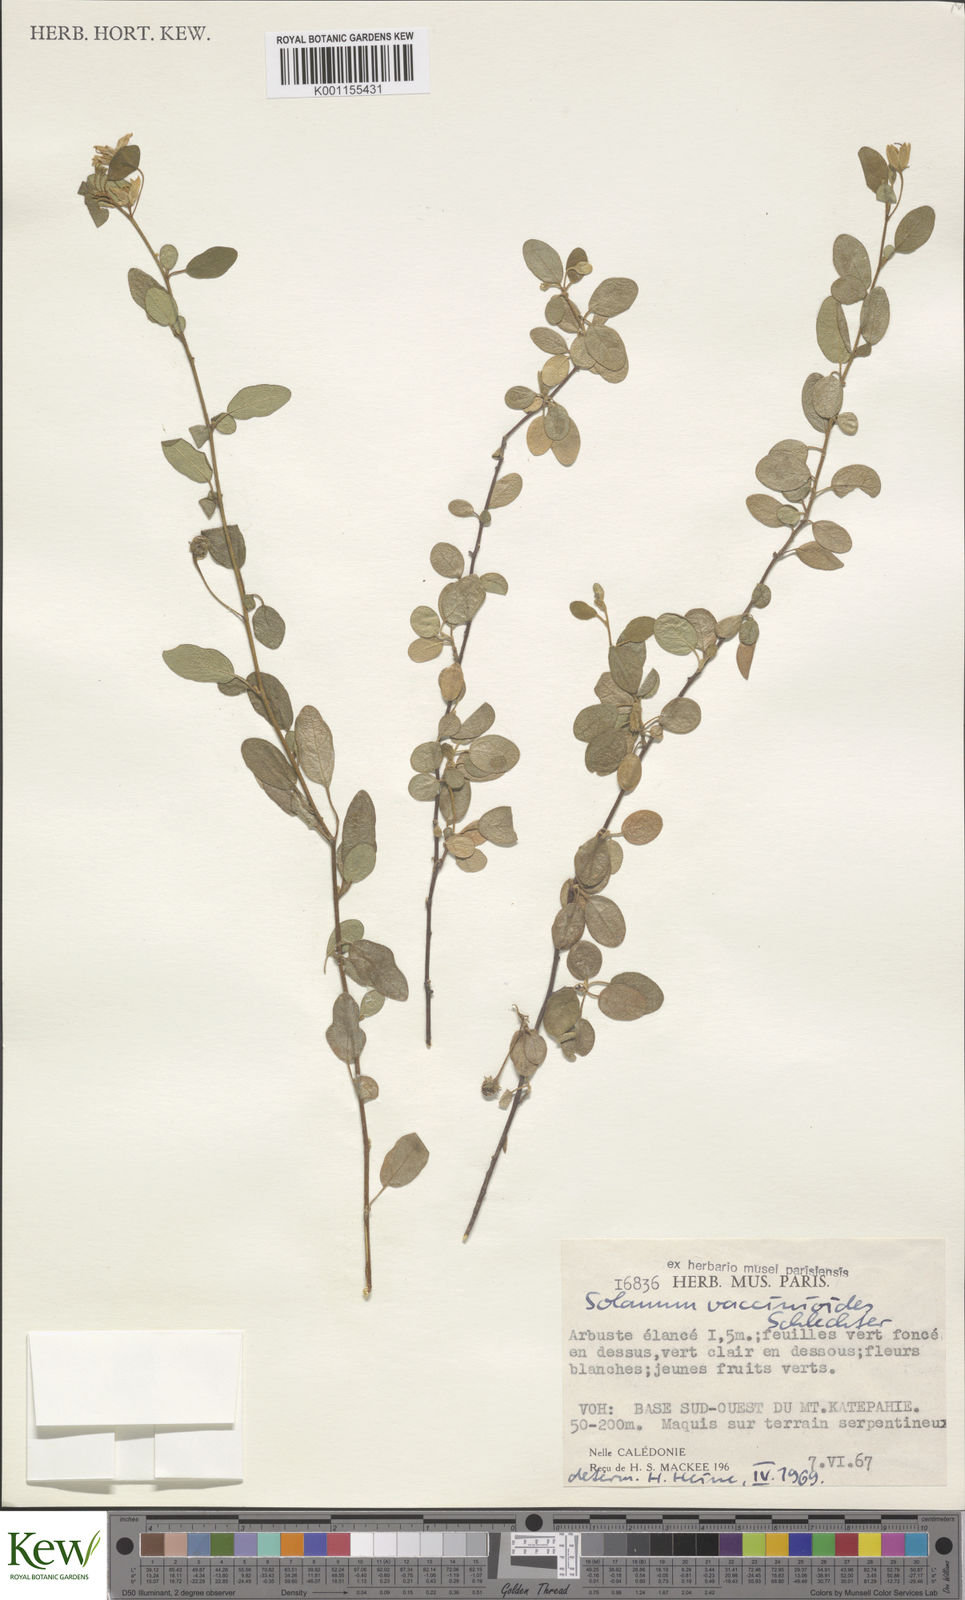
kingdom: Plantae
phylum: Tracheophyta
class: Magnoliopsida
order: Solanales
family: Solanaceae
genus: Solanum
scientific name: Solanum vaccinioides
